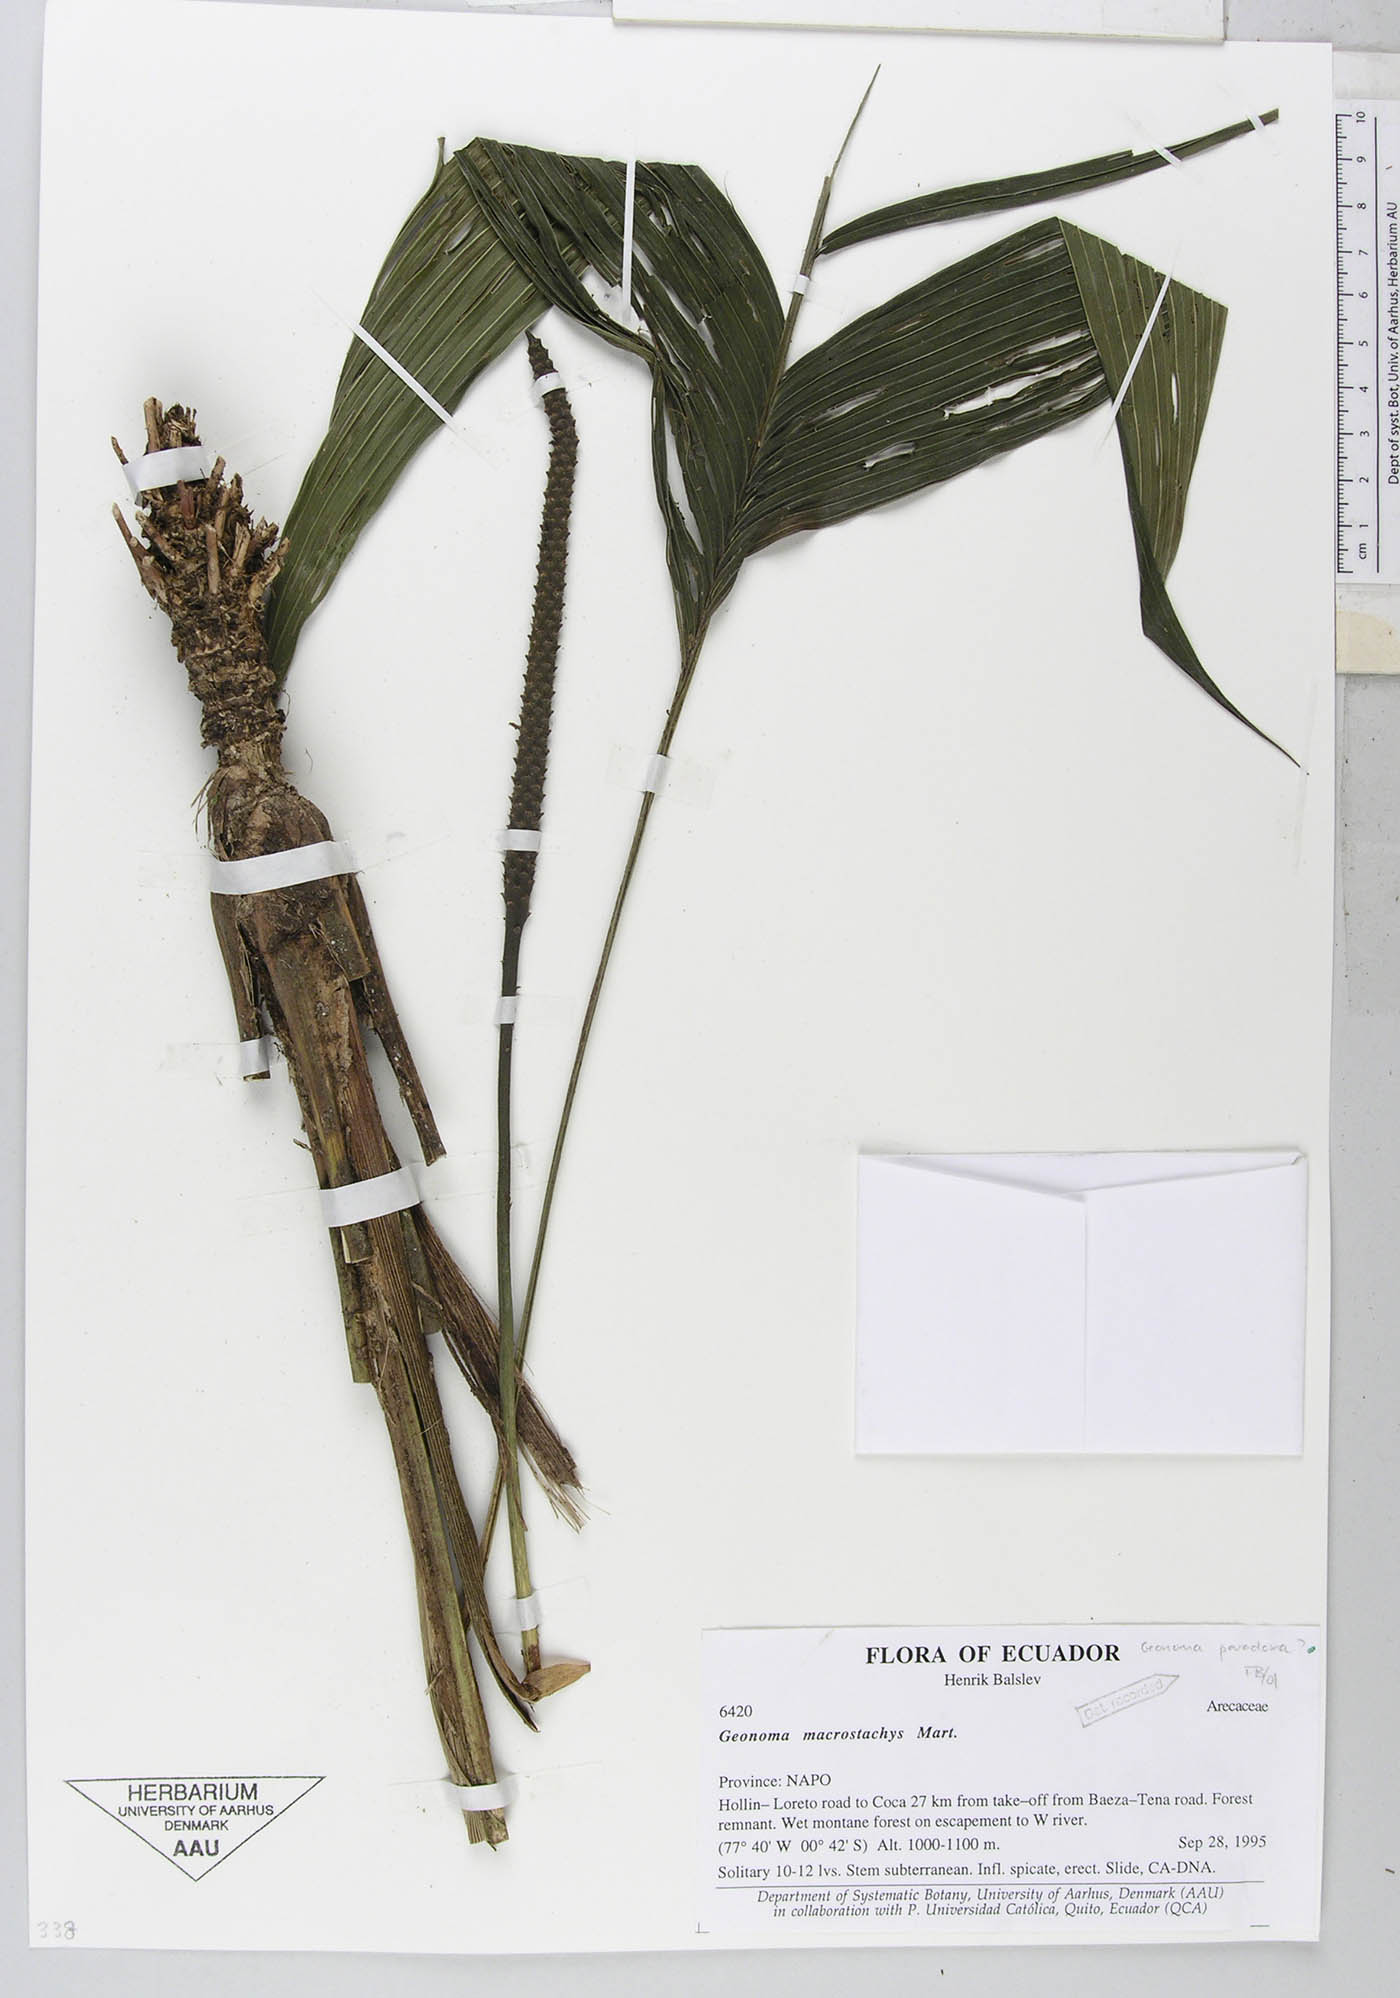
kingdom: Plantae
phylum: Tracheophyta
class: Liliopsida
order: Arecales
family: Arecaceae
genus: Geonoma
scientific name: Geonoma macrostachys
